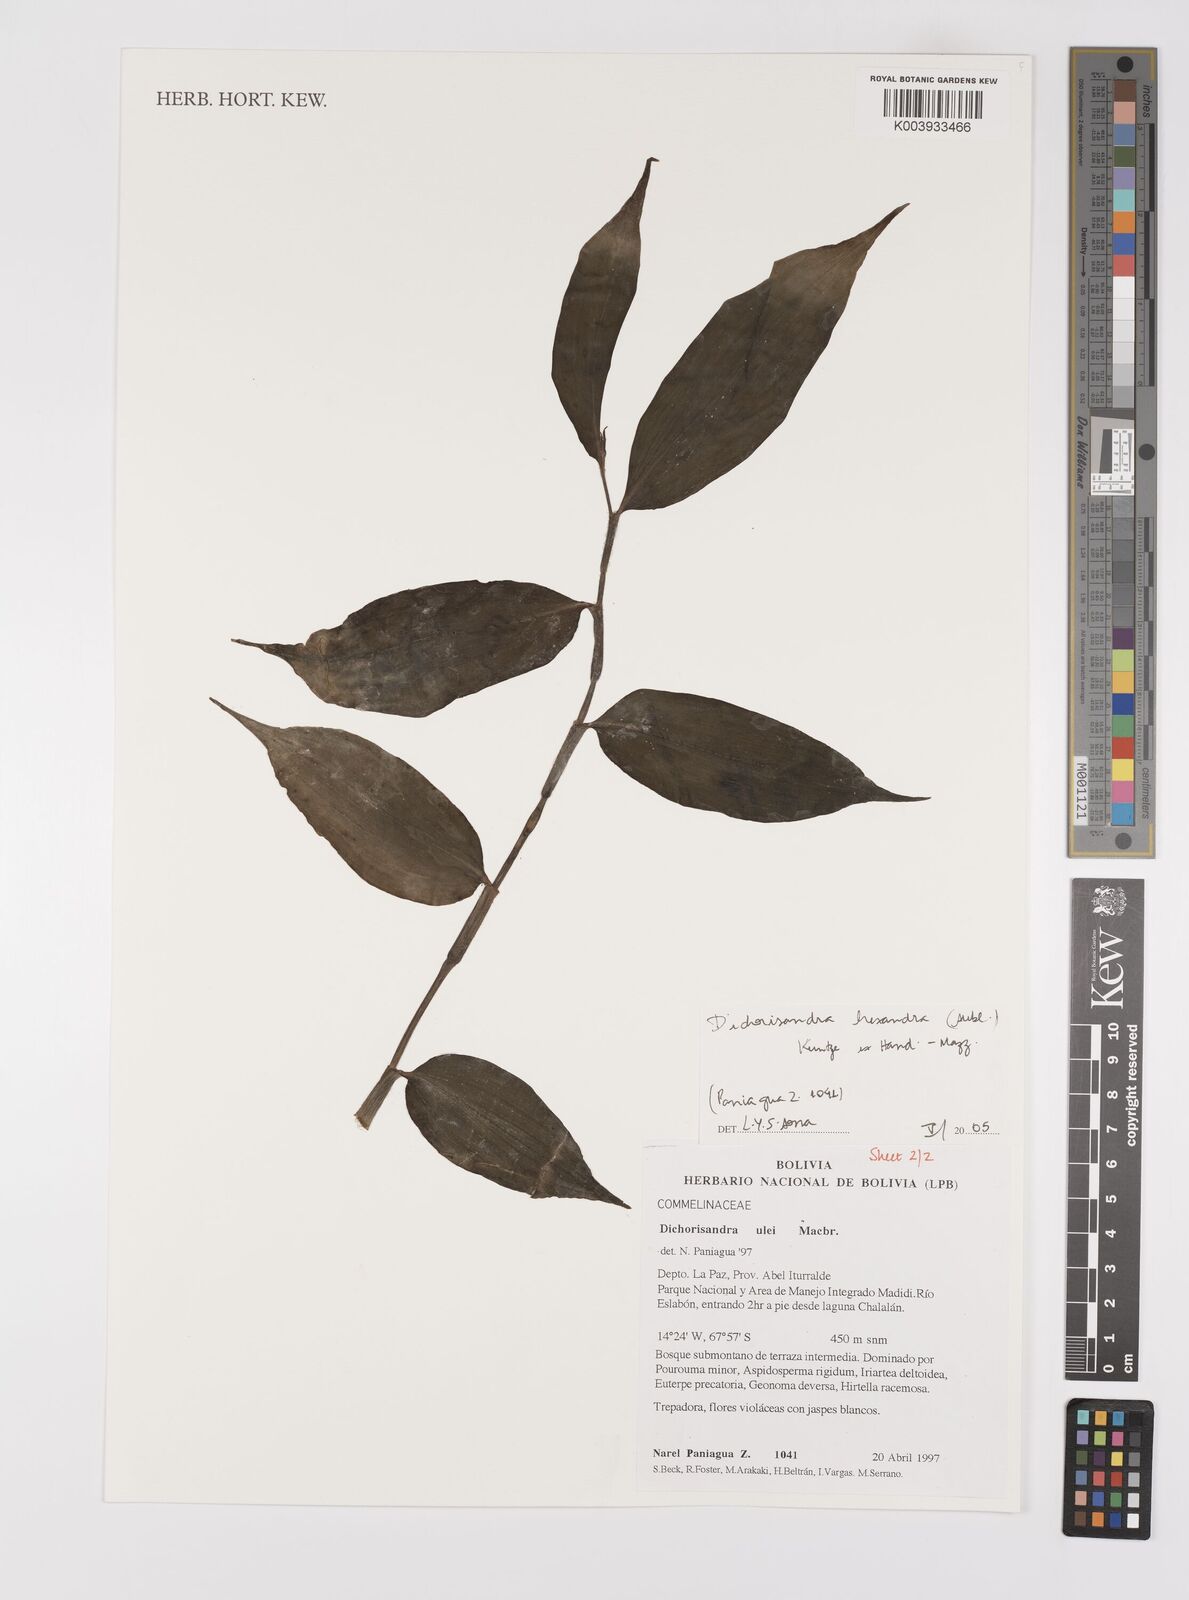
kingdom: Plantae
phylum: Tracheophyta
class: Liliopsida
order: Commelinales
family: Commelinaceae
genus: Dichorisandra
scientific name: Dichorisandra hexandra
